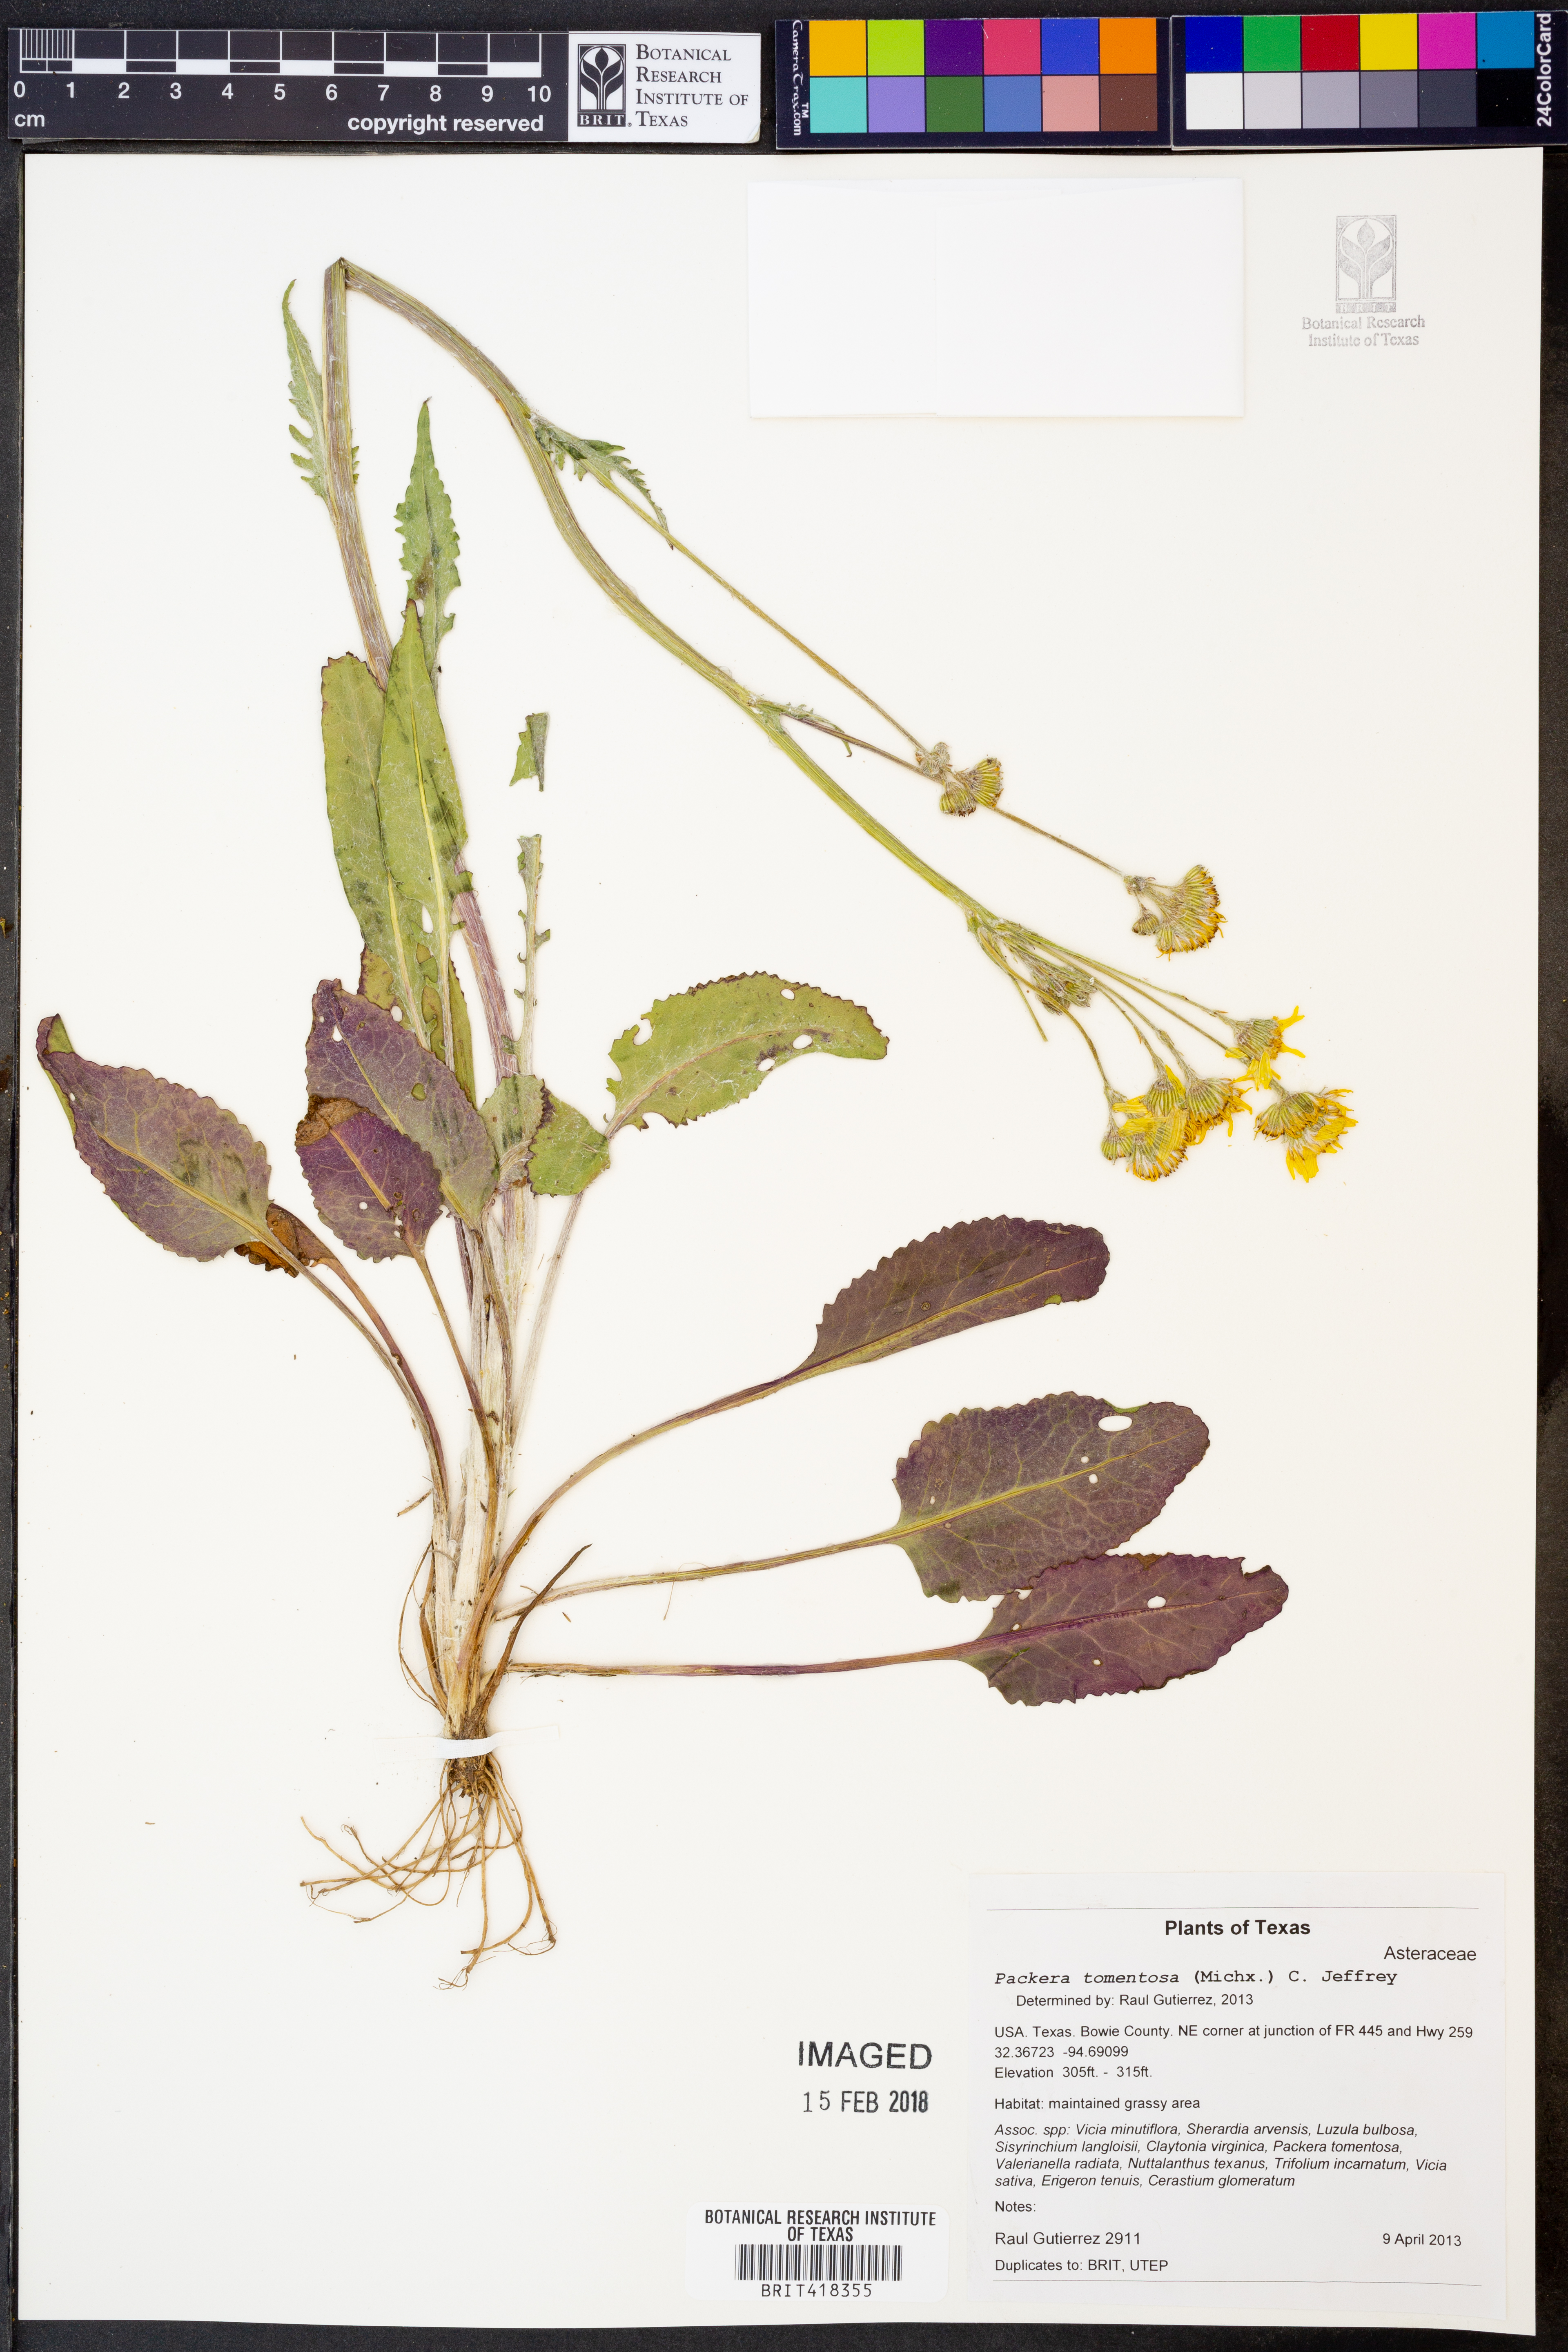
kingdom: Plantae
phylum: Tracheophyta
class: Magnoliopsida
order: Asterales
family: Asteraceae
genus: Packera
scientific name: Packera dubia
